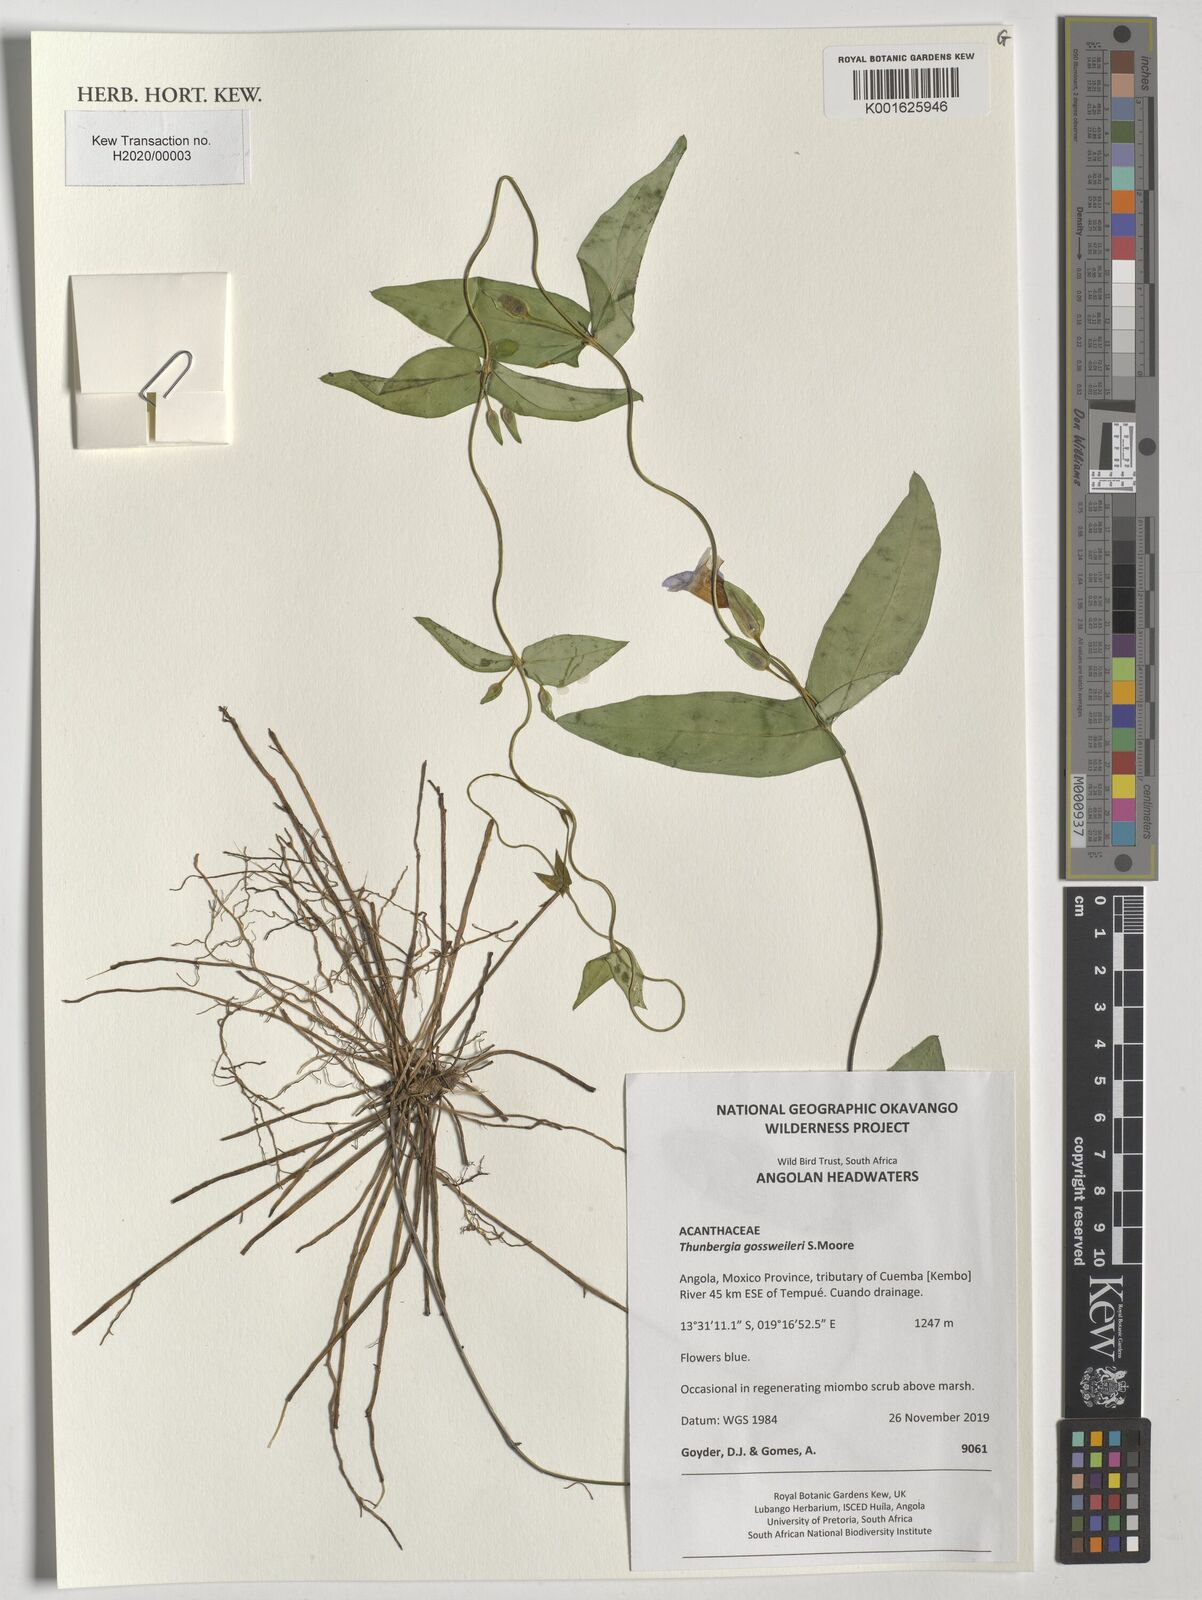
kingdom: Plantae
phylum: Tracheophyta
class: Magnoliopsida
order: Lamiales
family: Acanthaceae
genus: Thunbergia
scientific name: Thunbergia gossweileri
